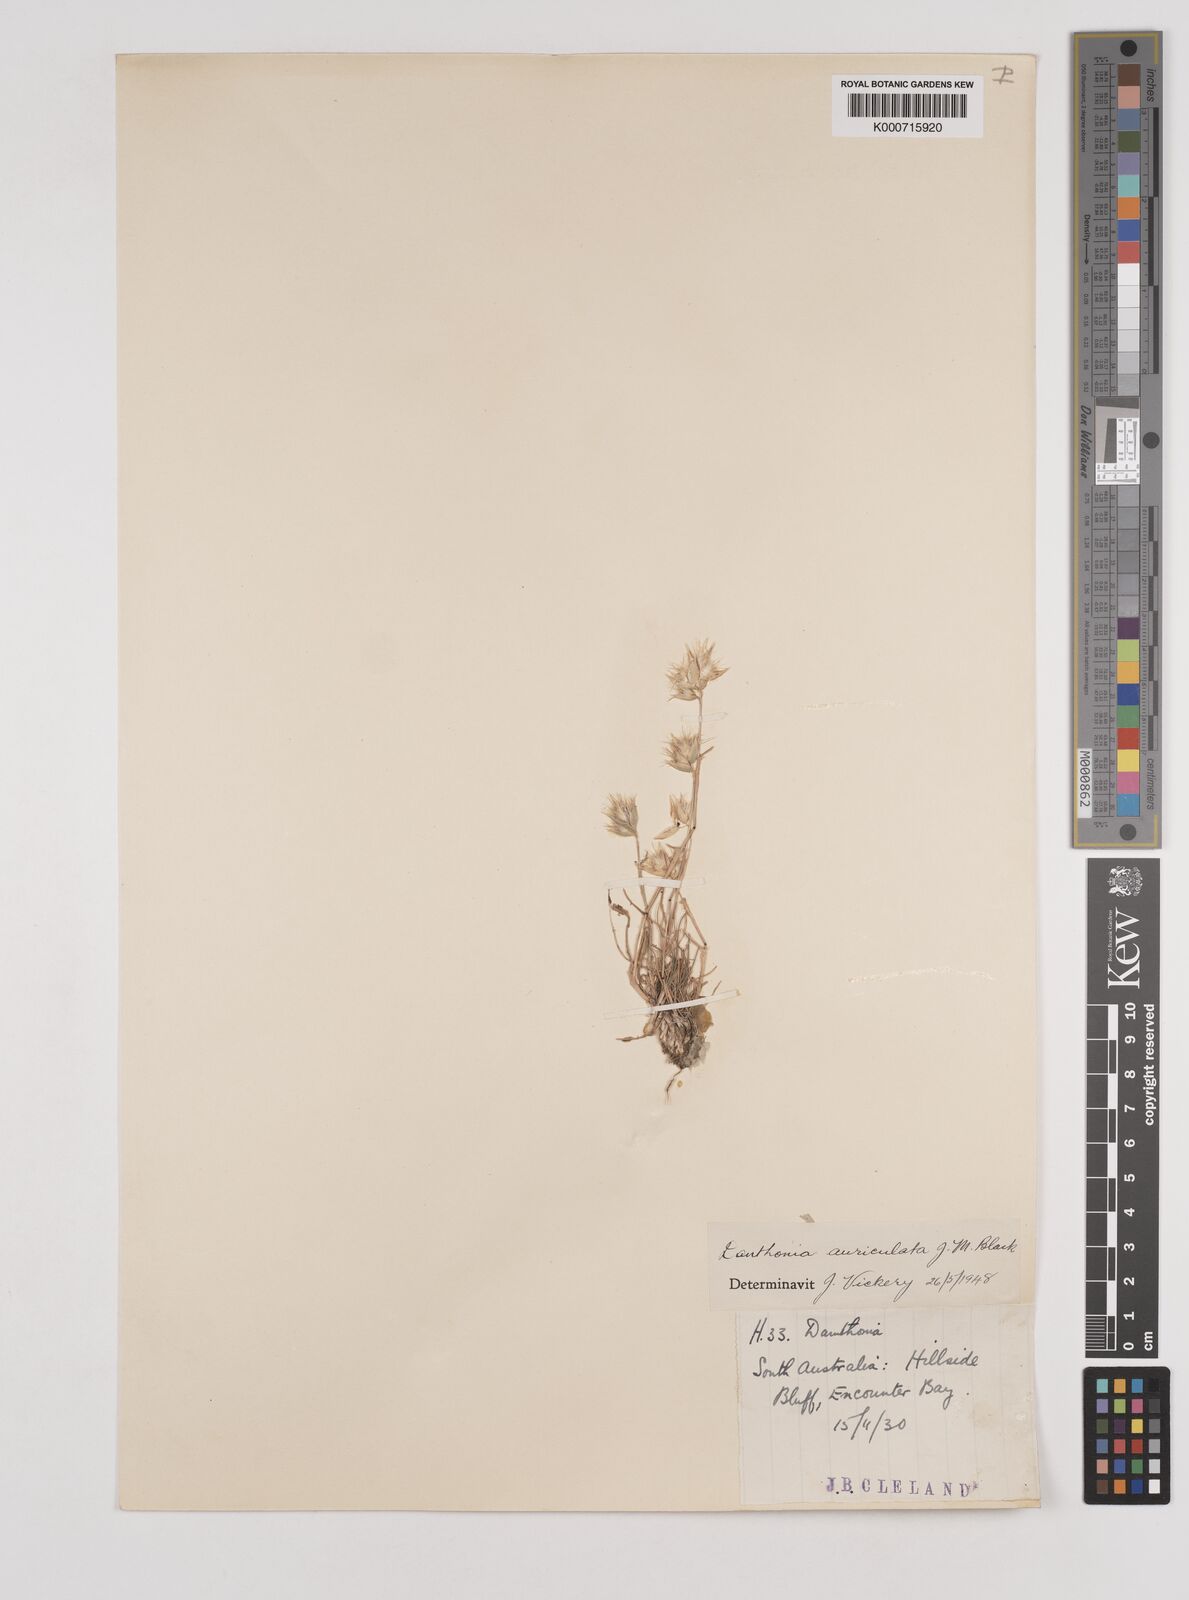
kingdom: Plantae
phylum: Tracheophyta
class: Liliopsida
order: Poales
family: Poaceae
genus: Rytidosperma
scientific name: Rytidosperma auriculatum
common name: Lobed wallaby grass
